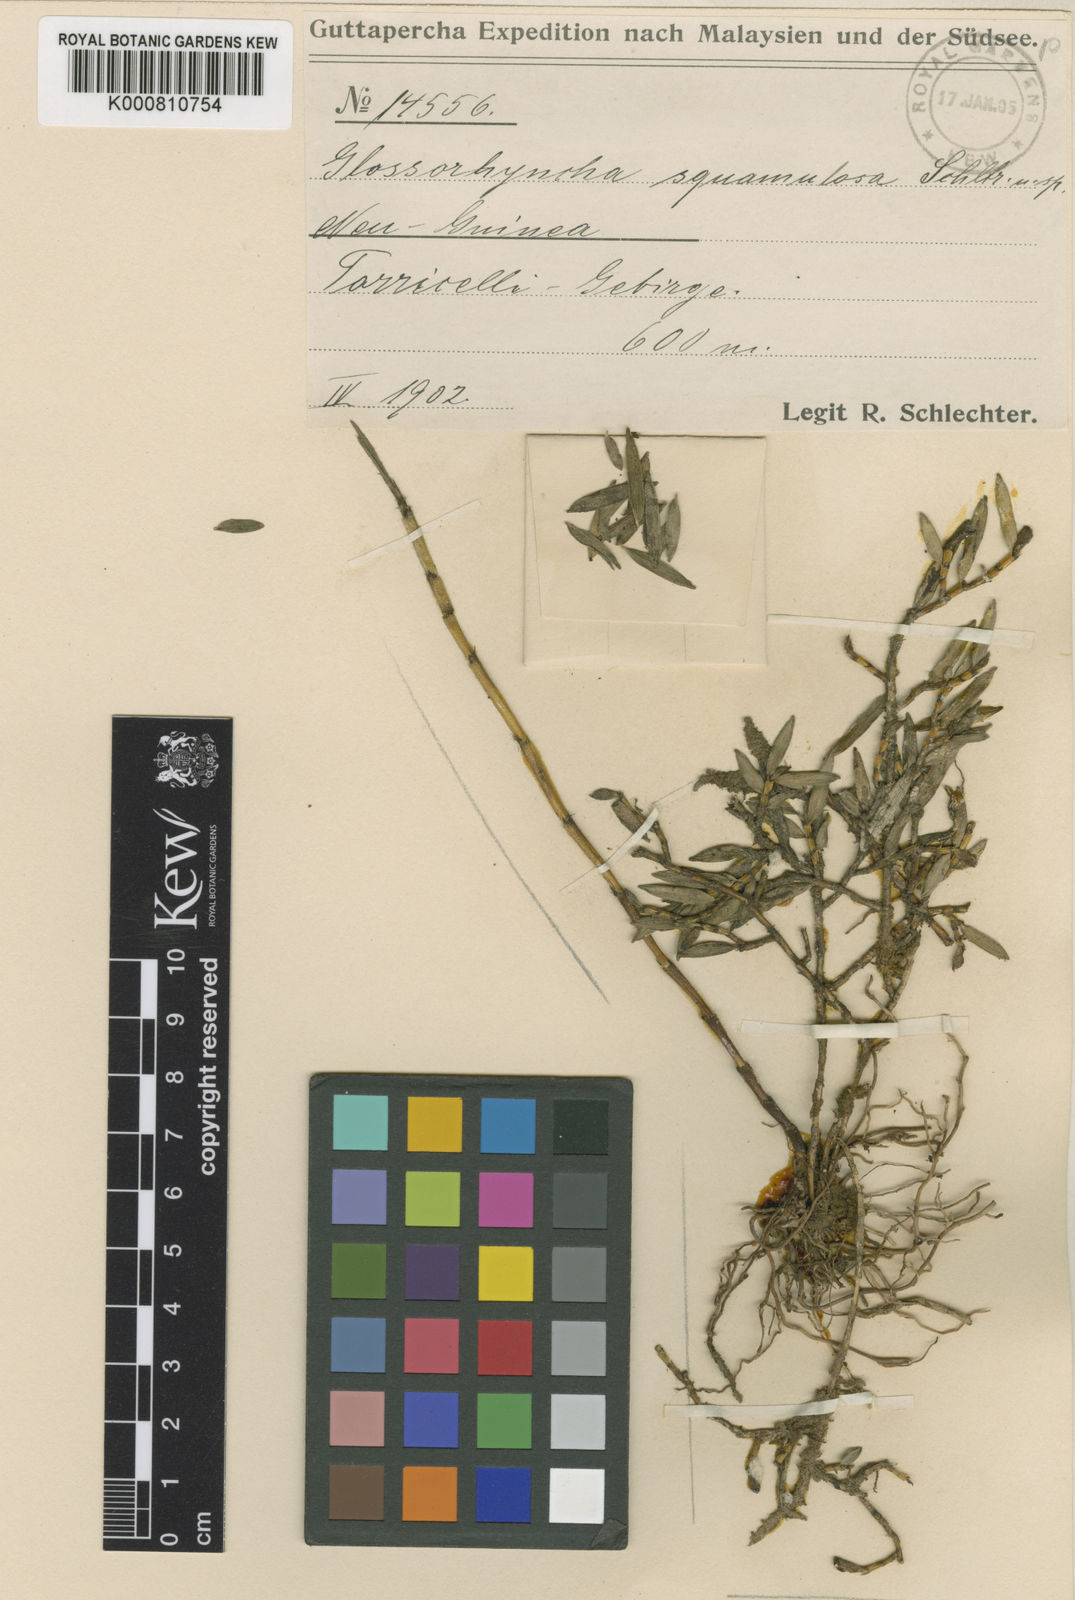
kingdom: Plantae
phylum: Tracheophyta
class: Liliopsida
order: Asparagales
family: Orchidaceae
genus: Glomera
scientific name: Glomera
